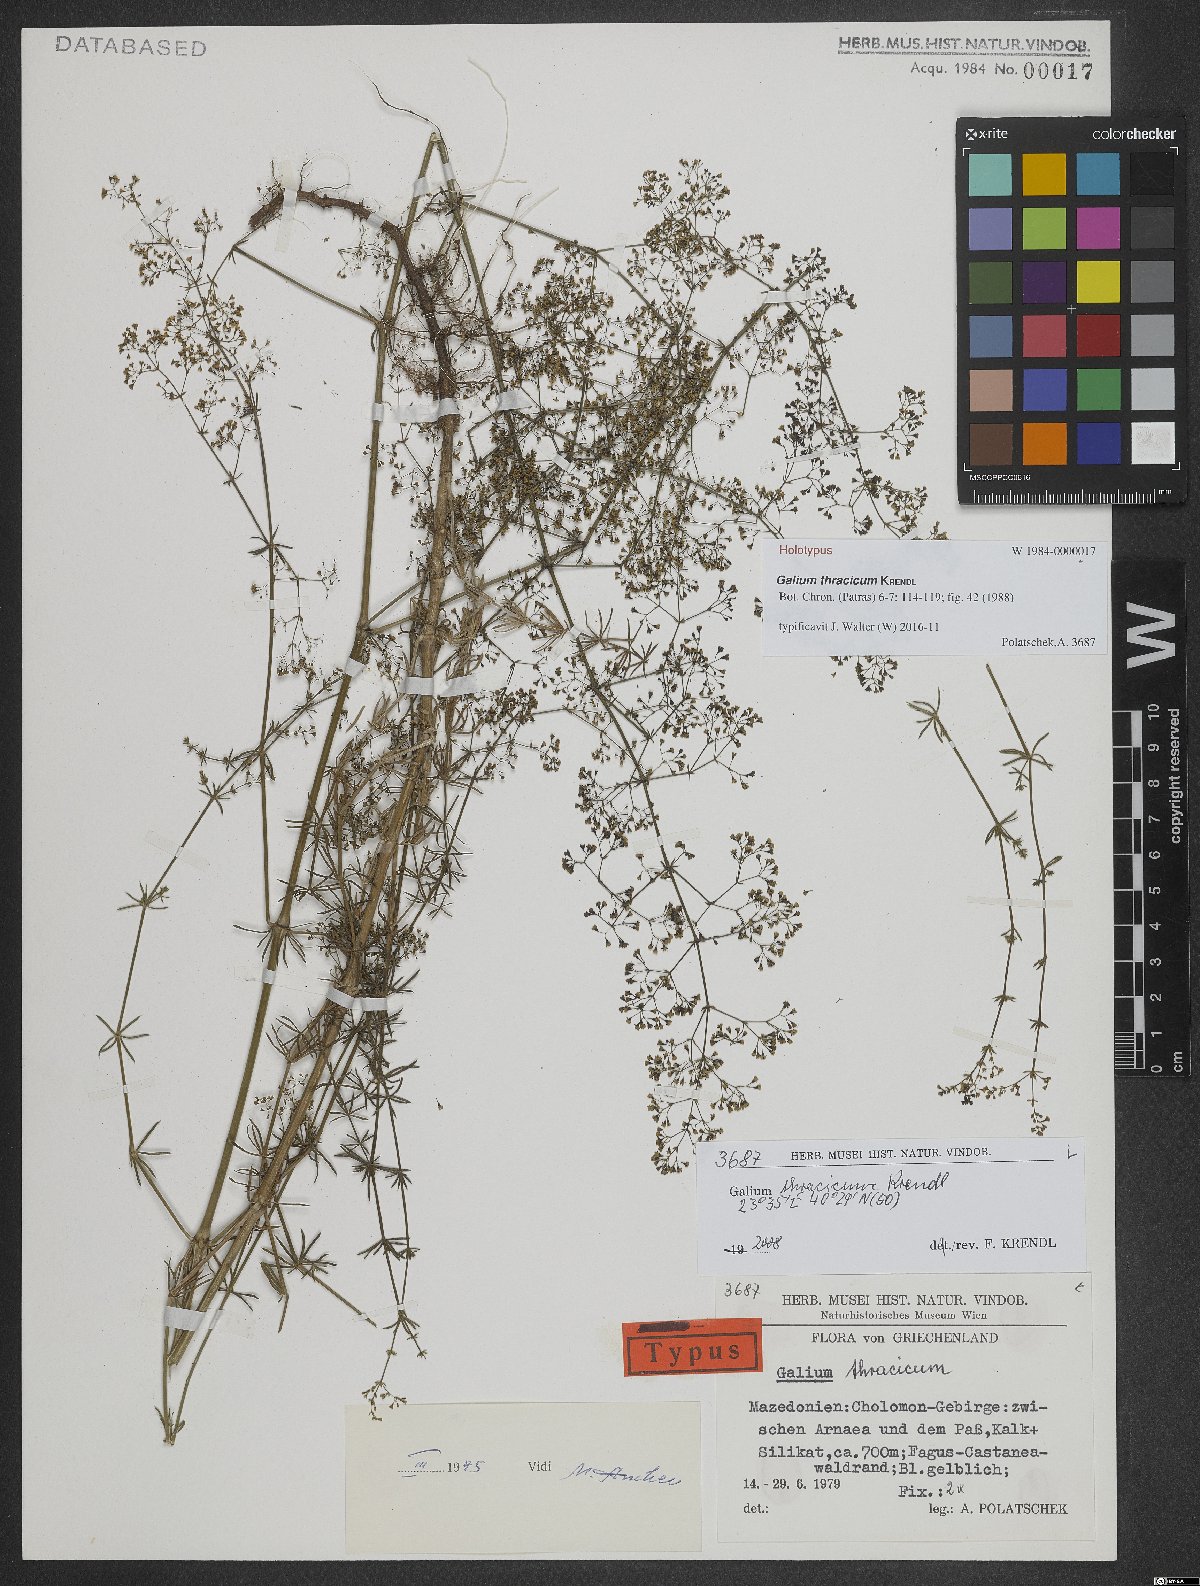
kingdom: Plantae
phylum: Tracheophyta
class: Magnoliopsida
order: Gentianales
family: Rubiaceae
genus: Galium
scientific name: Galium thracicum
